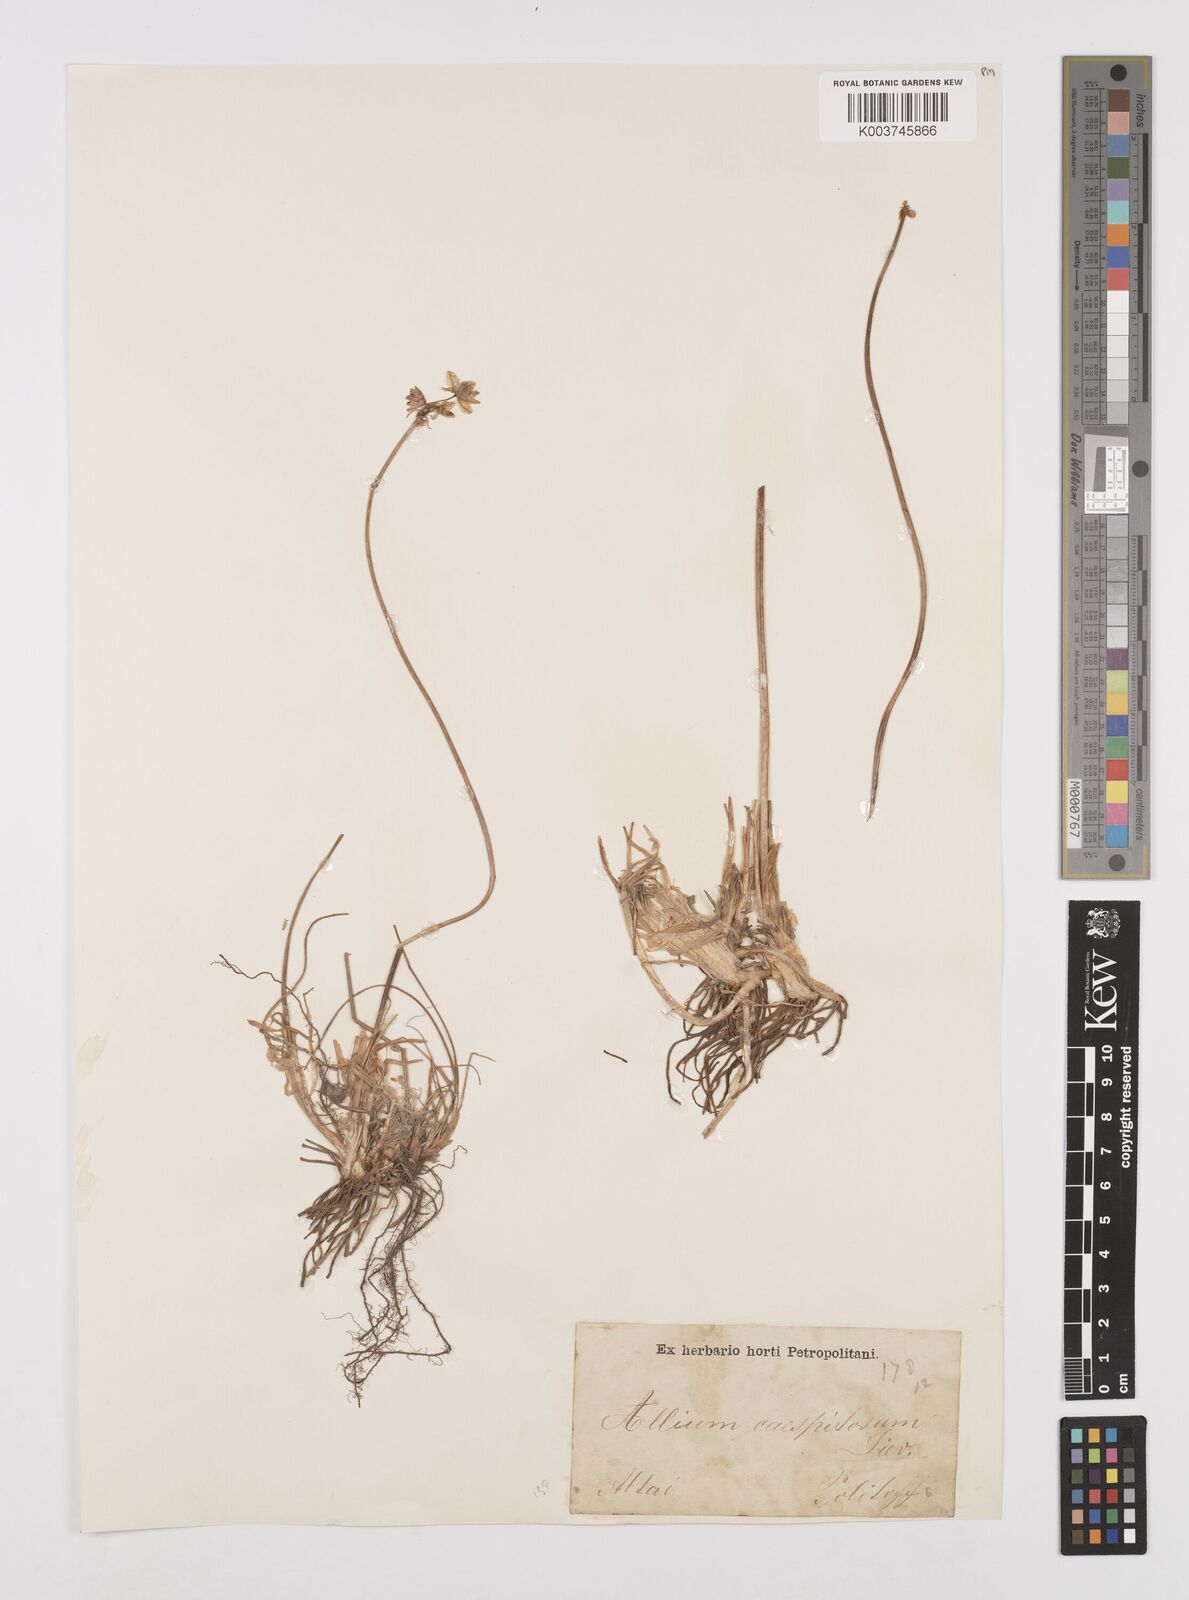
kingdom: Plantae
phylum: Tracheophyta
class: Liliopsida
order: Asparagales
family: Amaryllidaceae
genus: Allium
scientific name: Allium caespitosum
